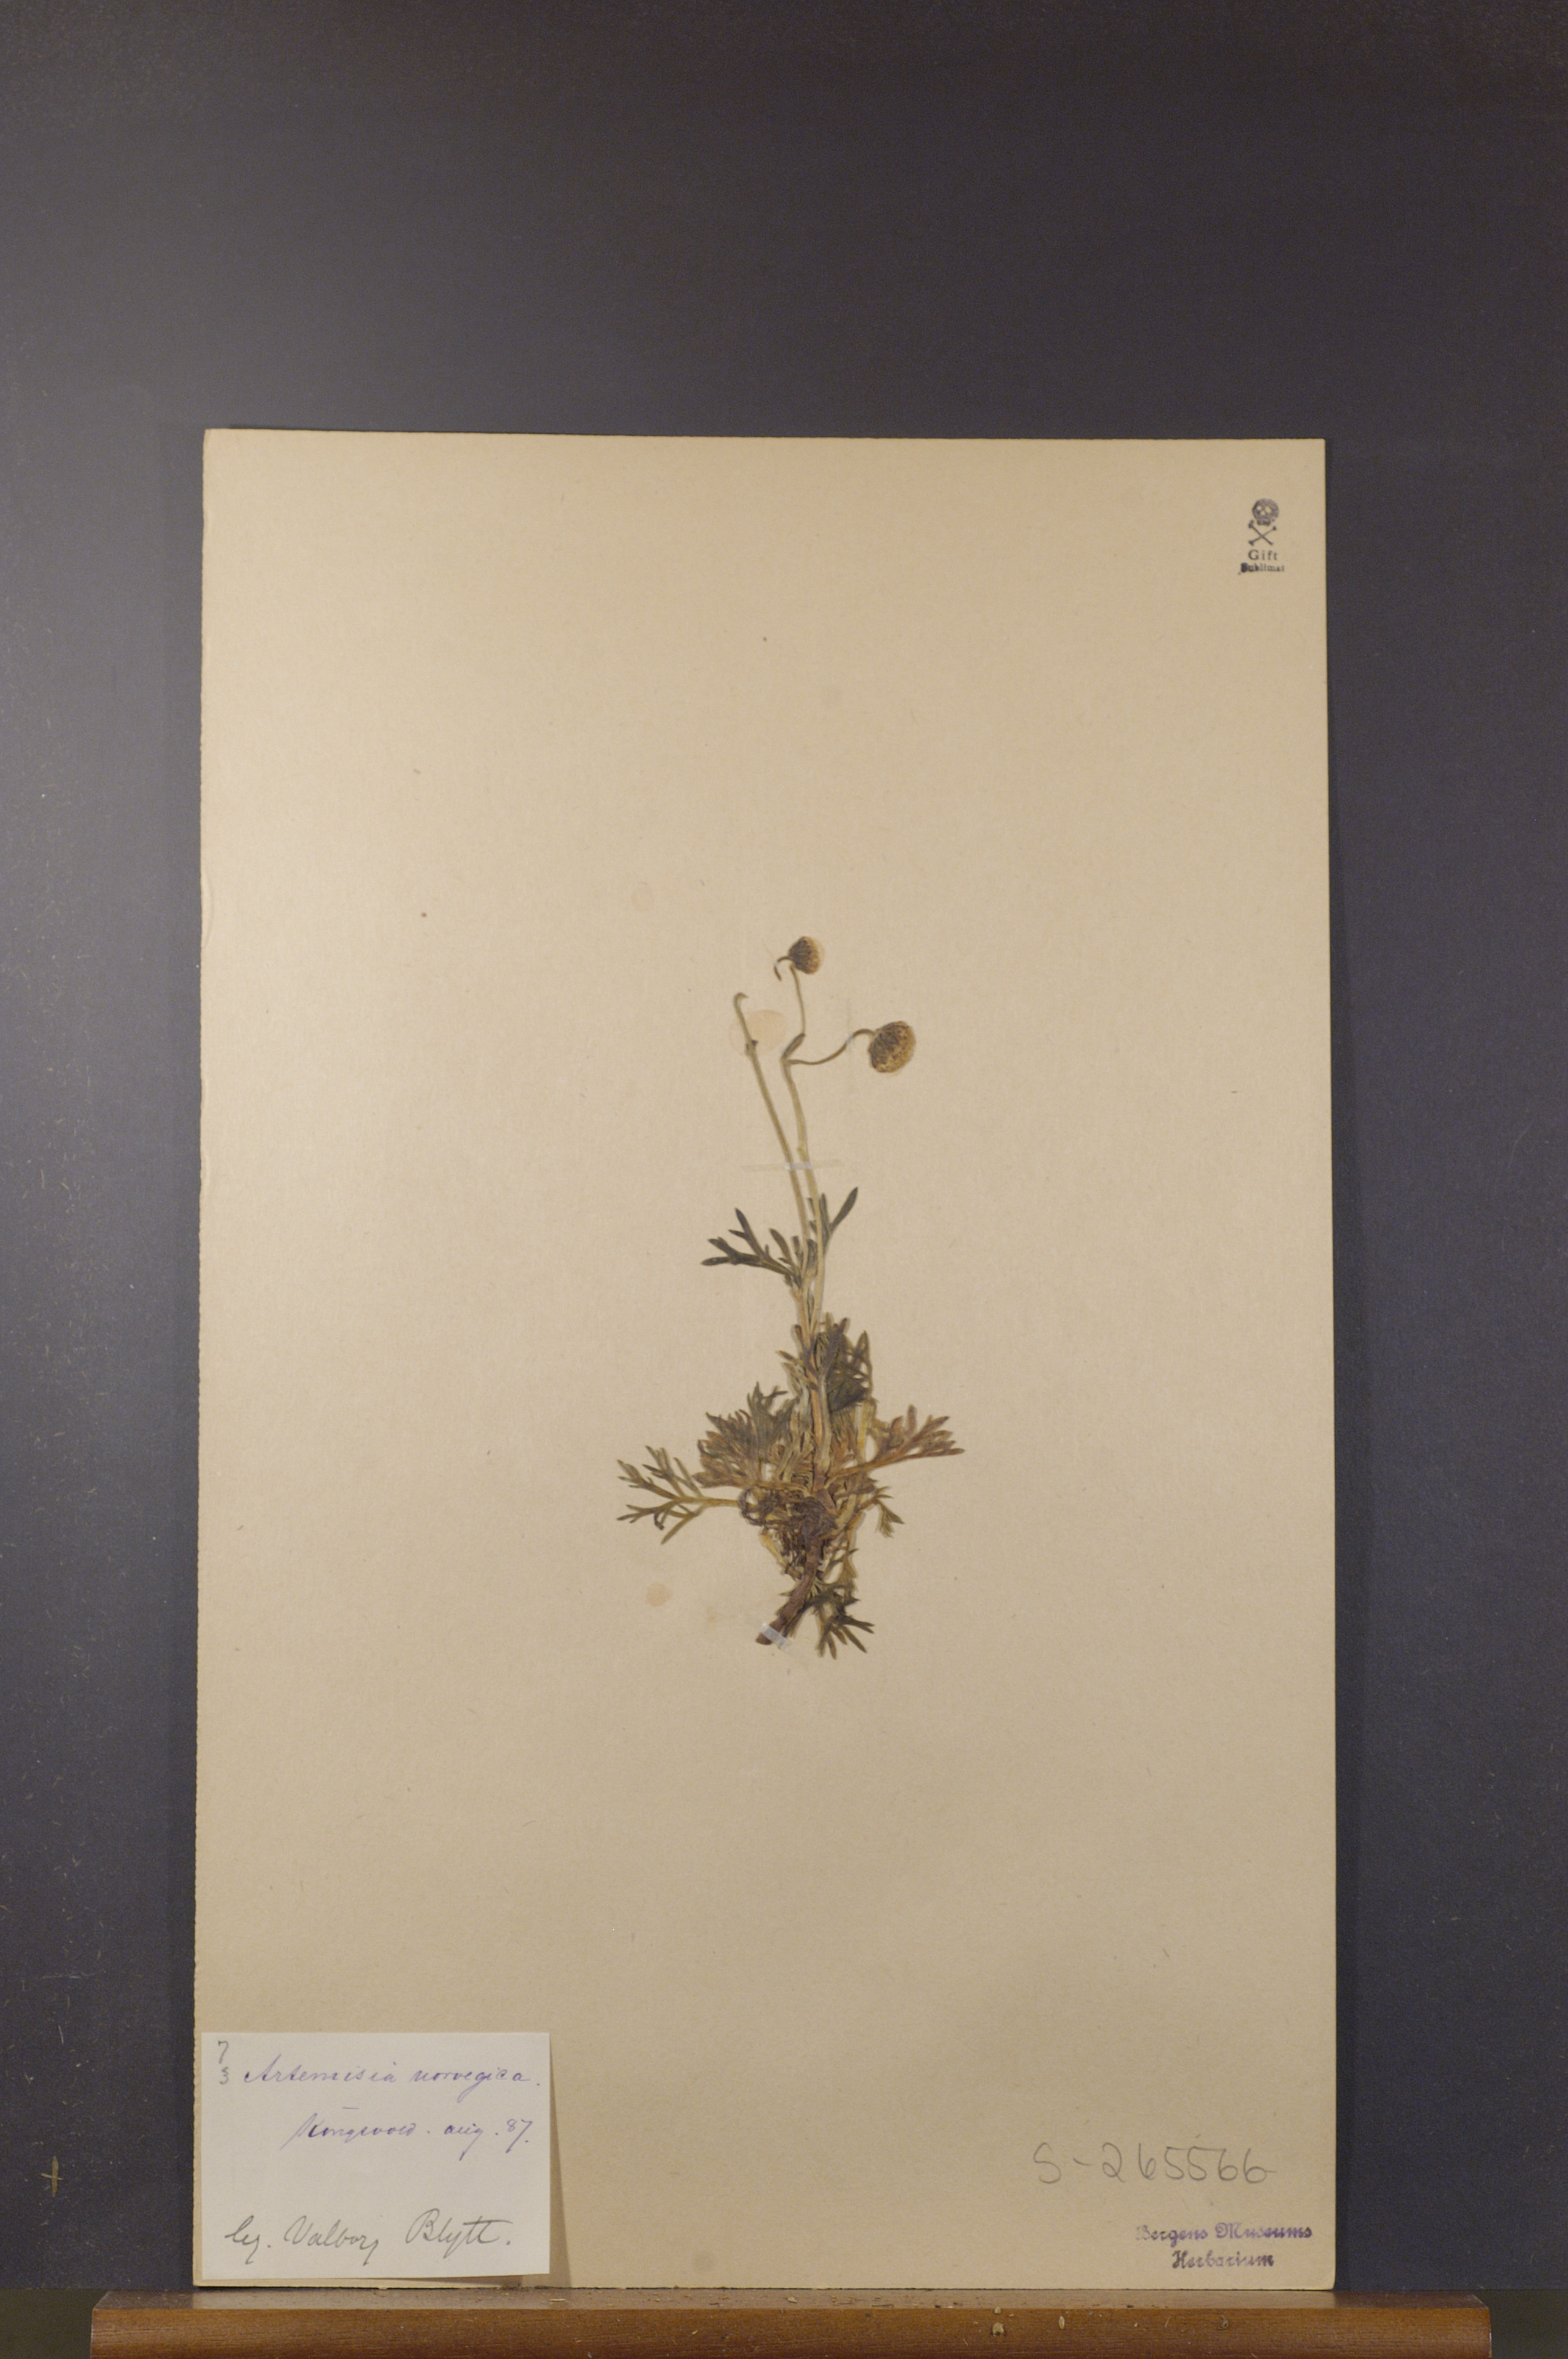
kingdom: Plantae
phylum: Tracheophyta
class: Magnoliopsida
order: Asterales
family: Asteraceae
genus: Artemisia
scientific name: Artemisia norvegica
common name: Norwegian mugwort
